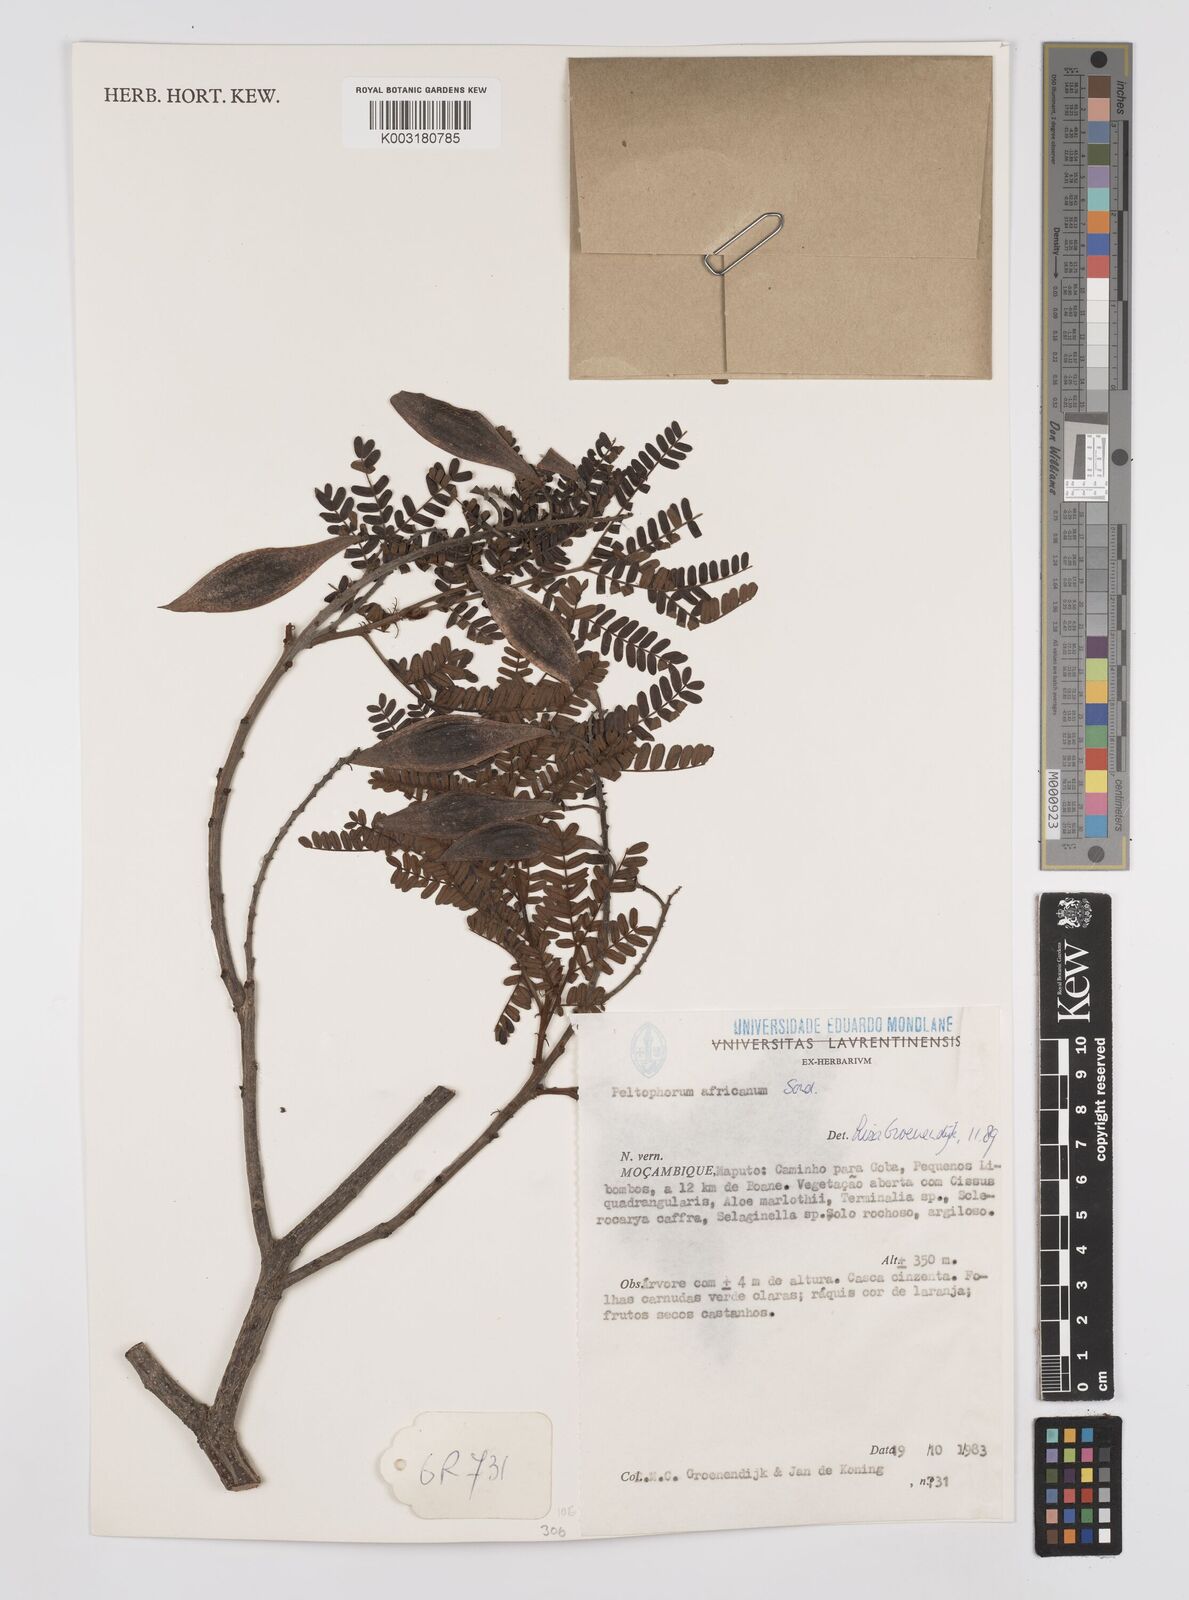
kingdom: Plantae
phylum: Tracheophyta
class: Magnoliopsida
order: Fabales
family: Fabaceae
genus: Peltophorum
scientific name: Peltophorum africanum
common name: African black wattle
